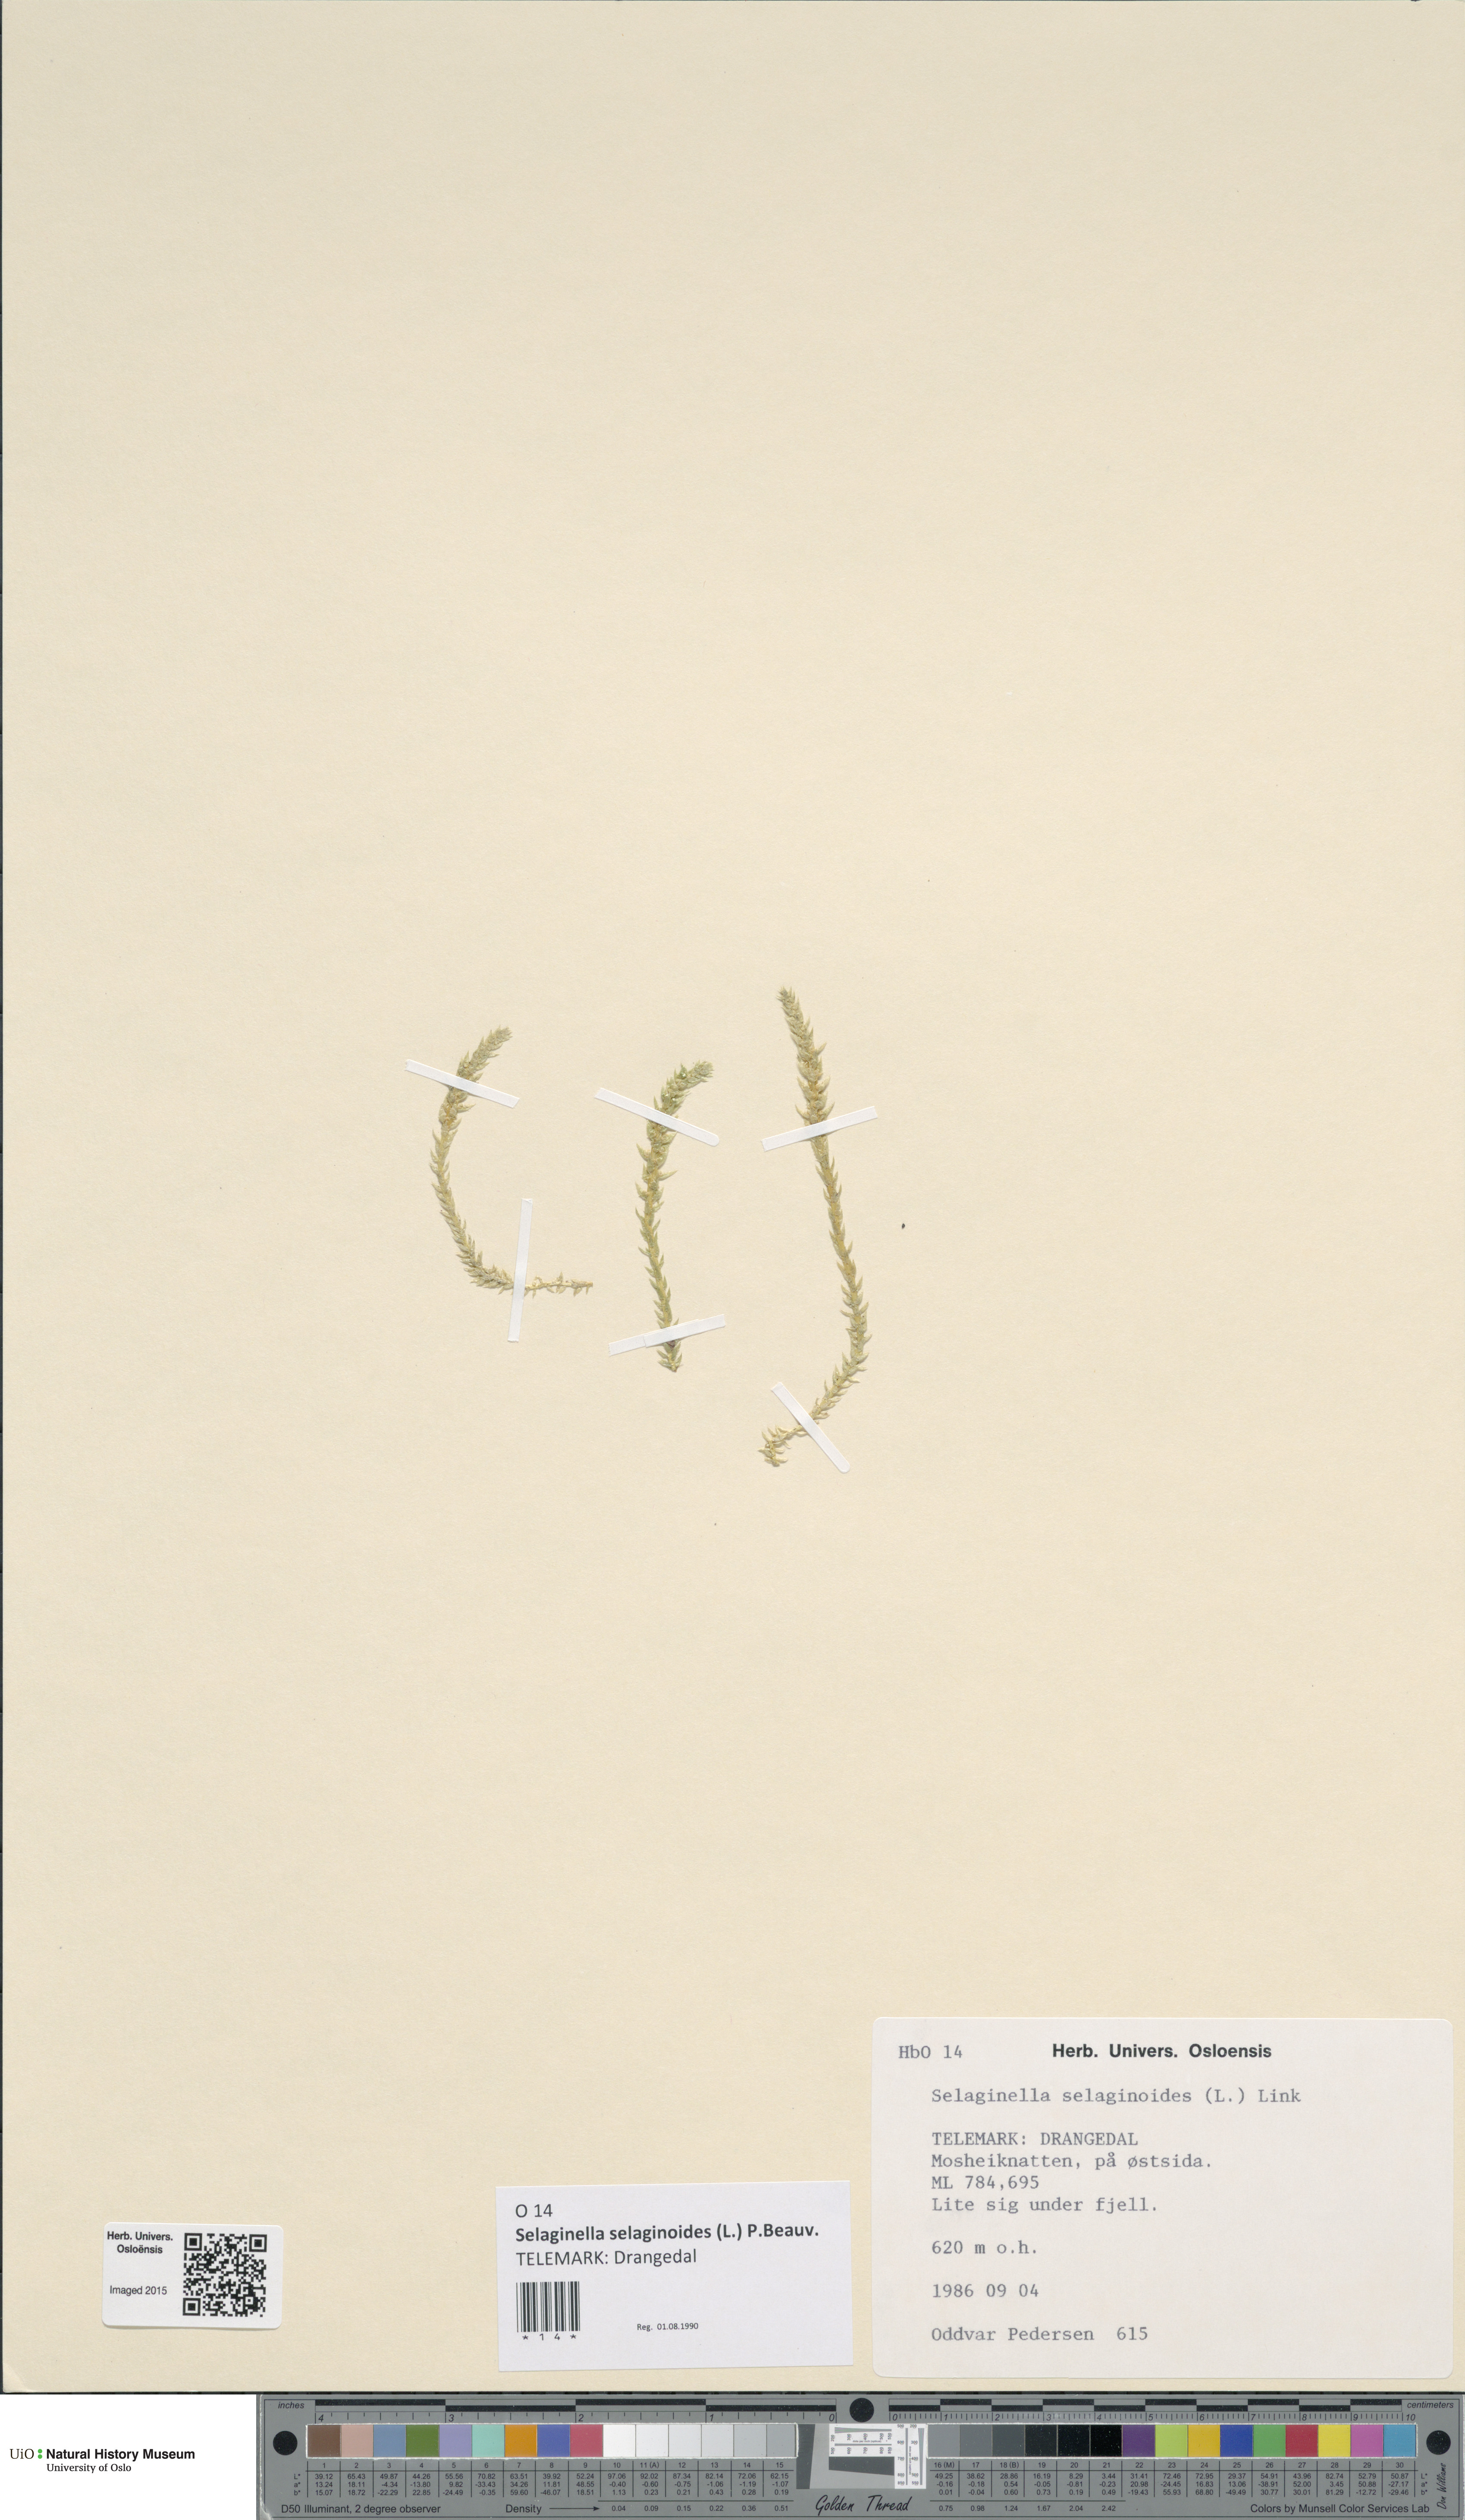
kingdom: Plantae
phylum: Tracheophyta
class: Lycopodiopsida
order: Selaginellales
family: Selaginellaceae
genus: Selaginella
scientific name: Selaginella selaginoides
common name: Prickly mountain-moss
